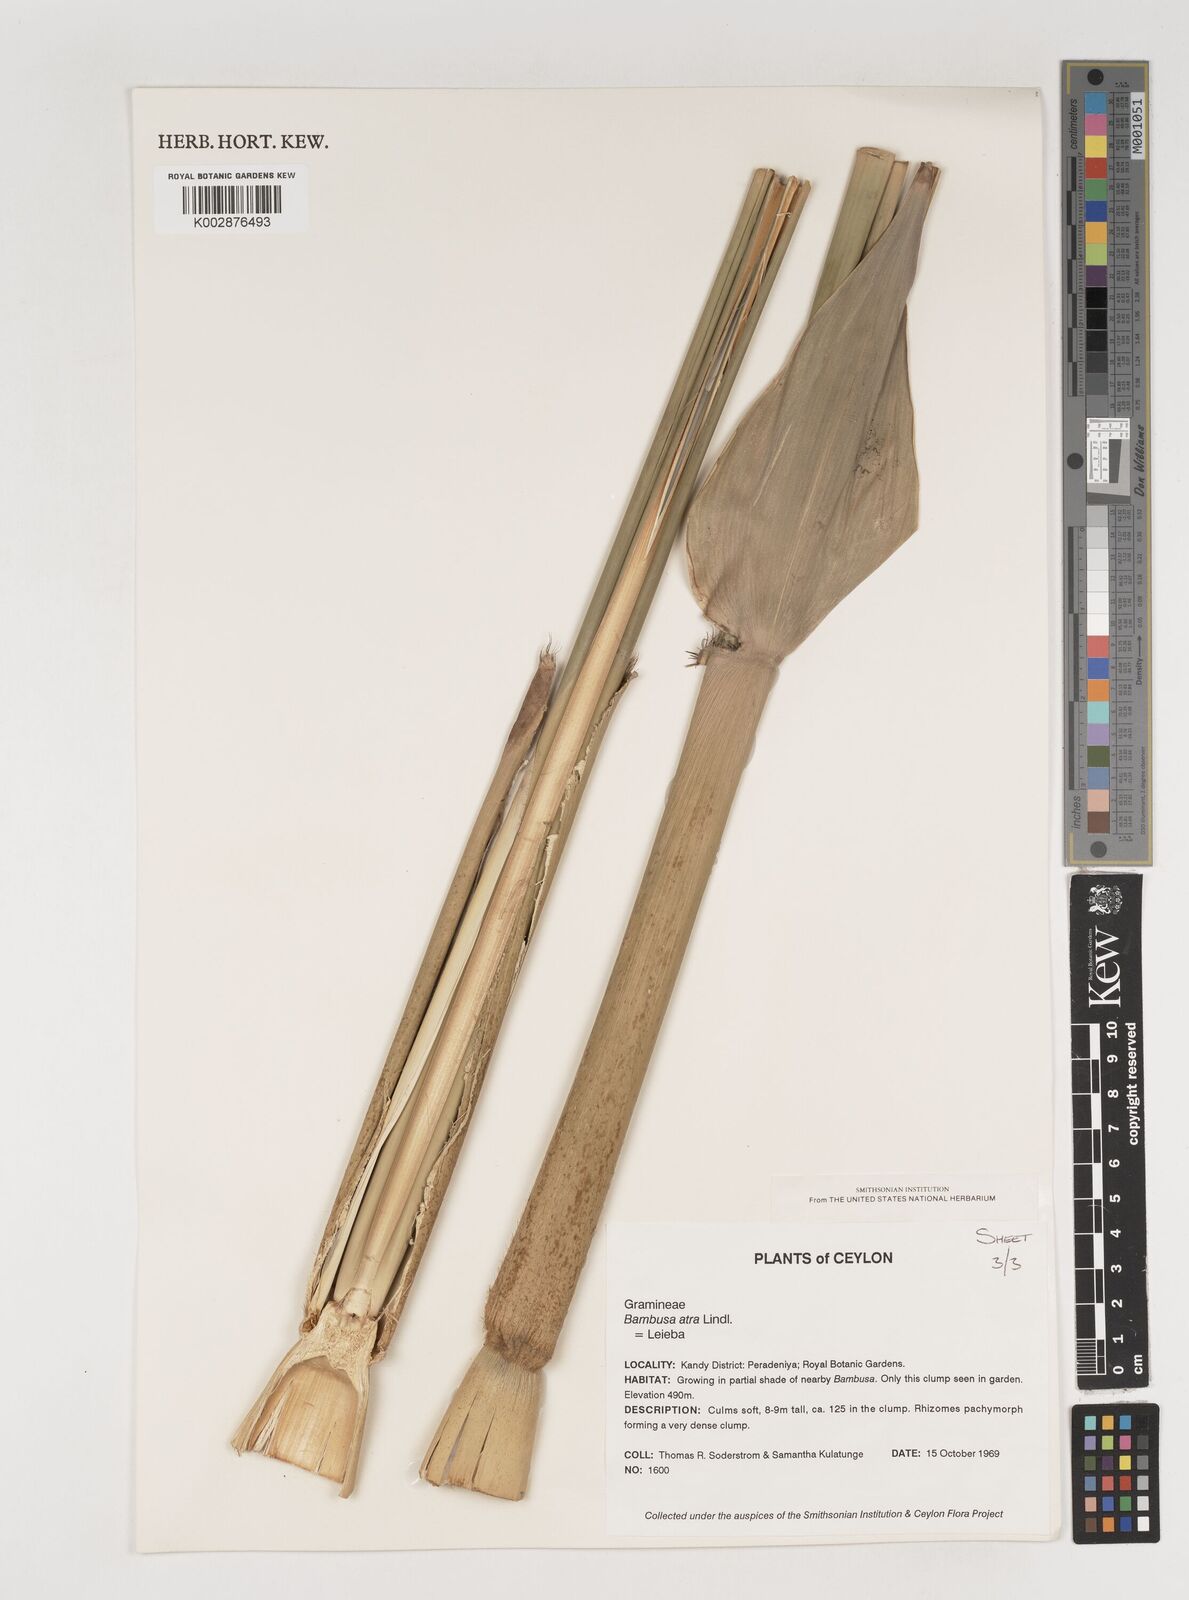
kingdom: Plantae
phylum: Tracheophyta
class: Liliopsida
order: Poales
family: Poaceae
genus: Bambusa
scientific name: Bambusa
